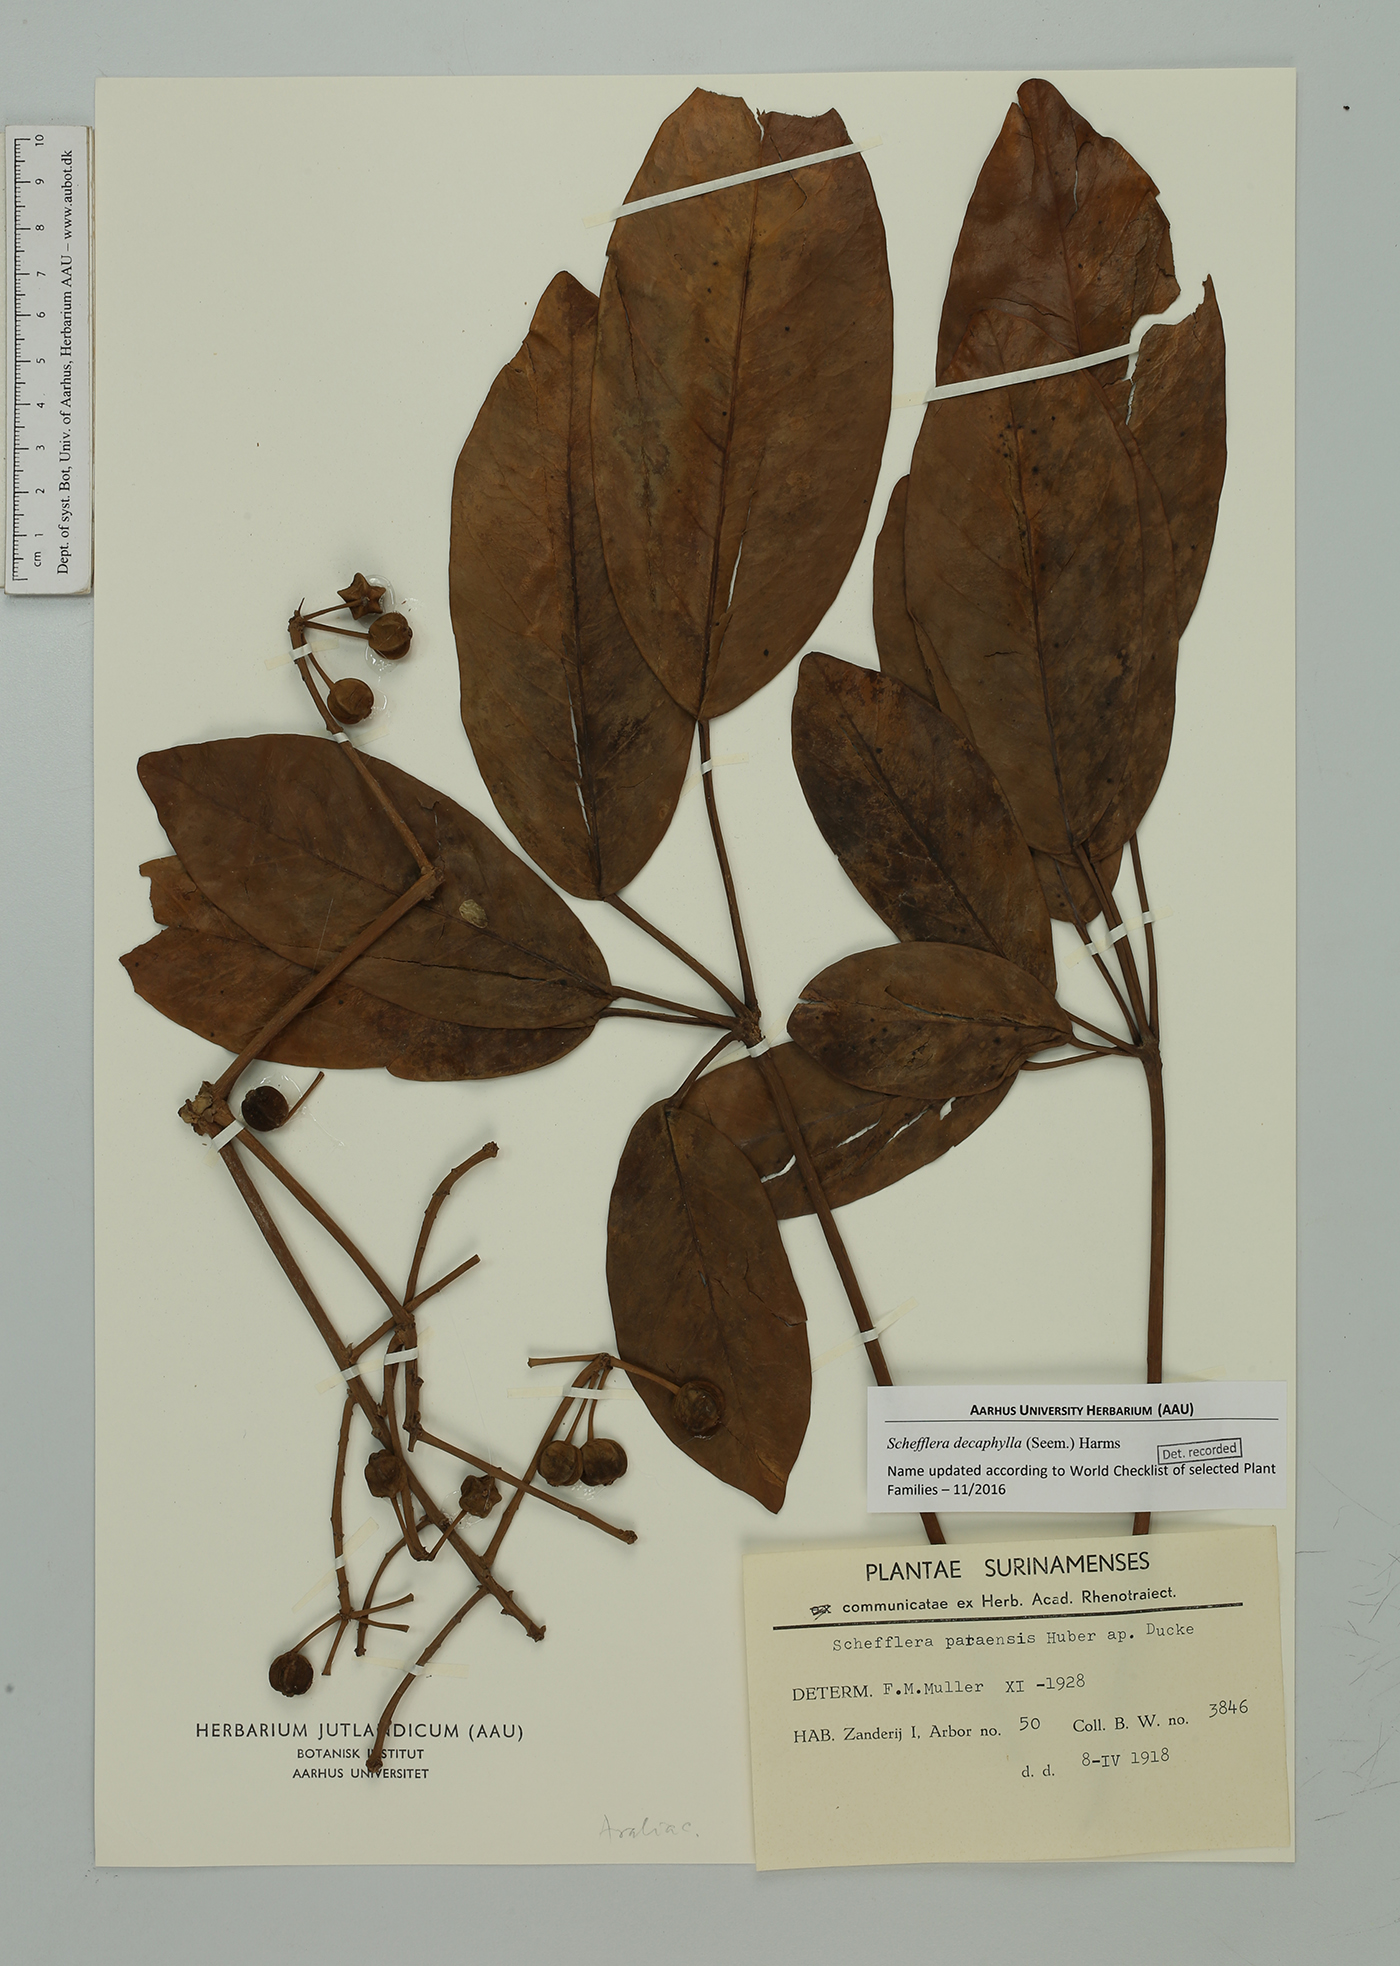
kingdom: Plantae
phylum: Tracheophyta
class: Magnoliopsida
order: Apiales
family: Araliaceae
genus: Didymopanax
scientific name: Didymopanax decaphyllus
